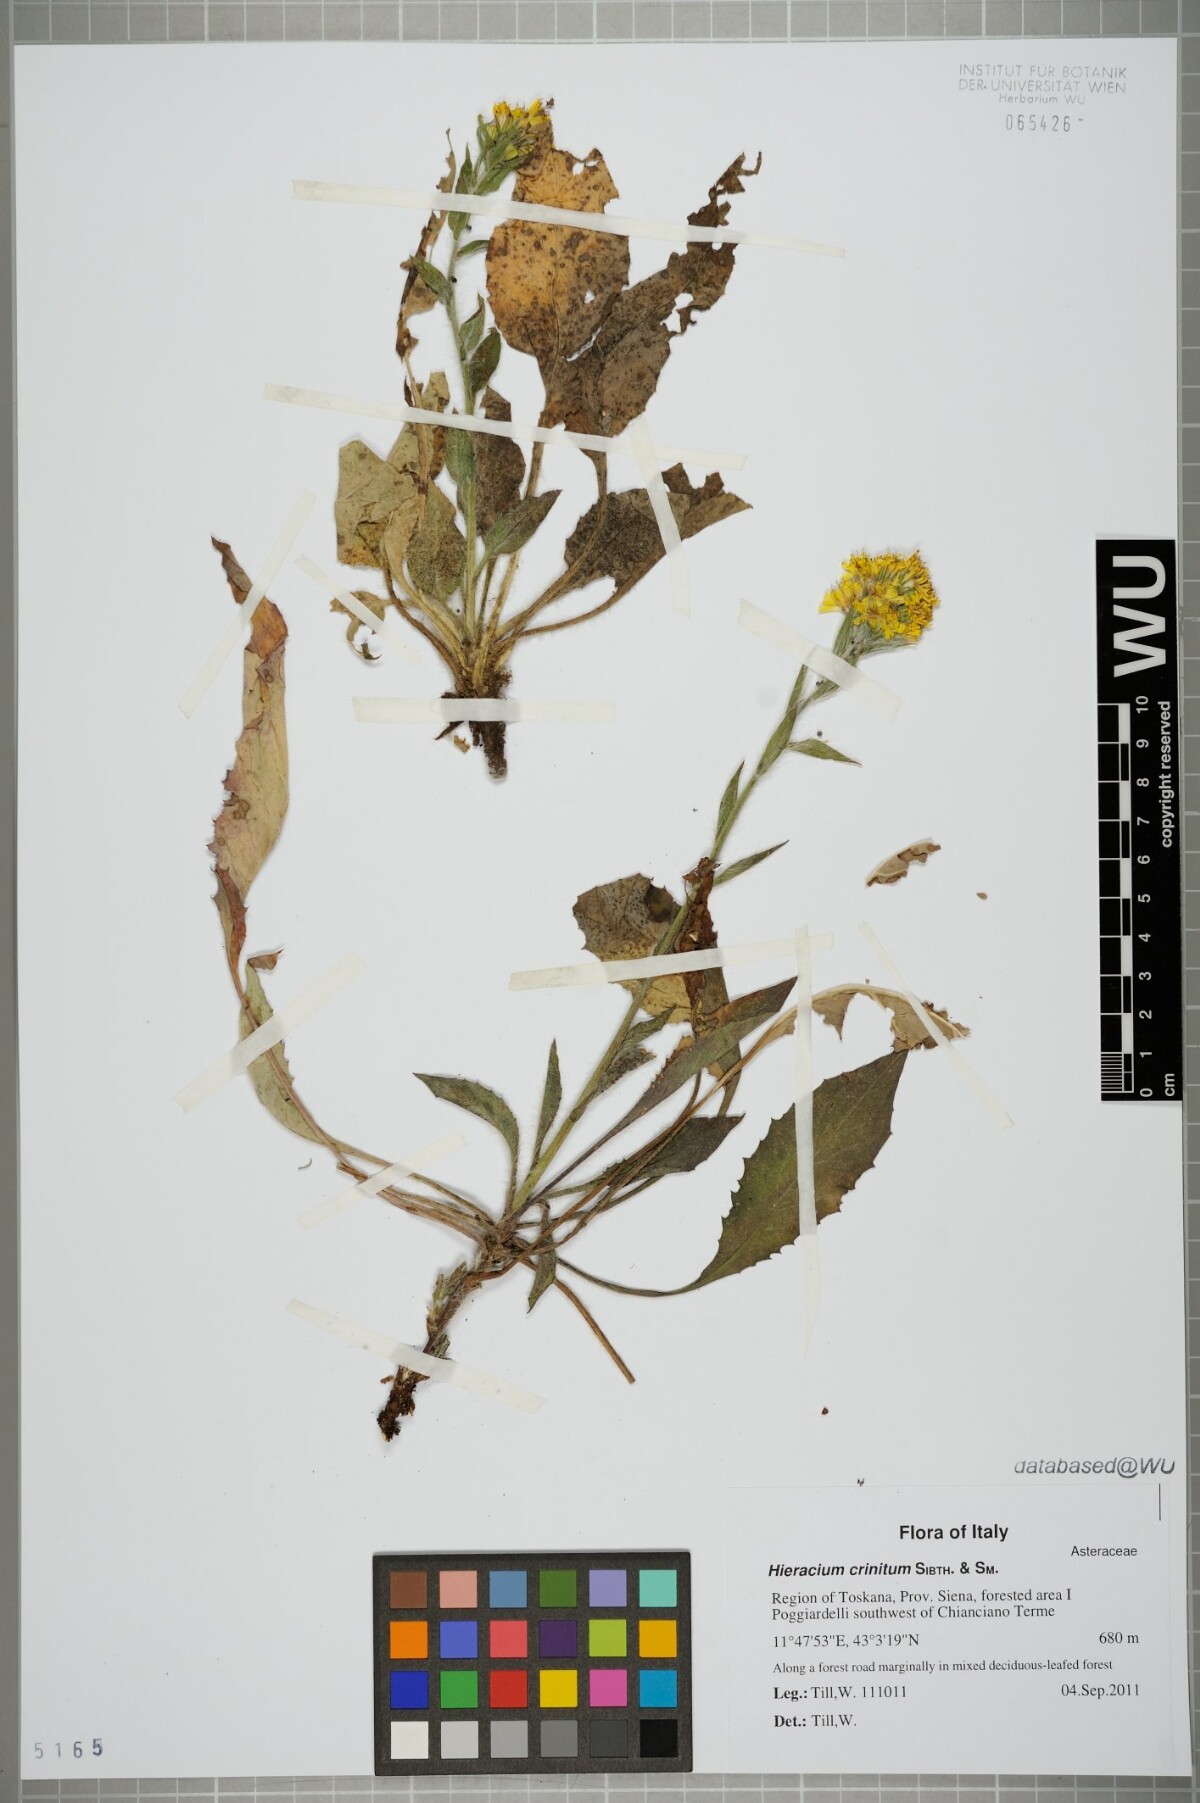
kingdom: Plantae
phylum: Tracheophyta
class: Magnoliopsida
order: Asterales
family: Asteraceae
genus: Hieracium
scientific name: Hieracium racemosum
